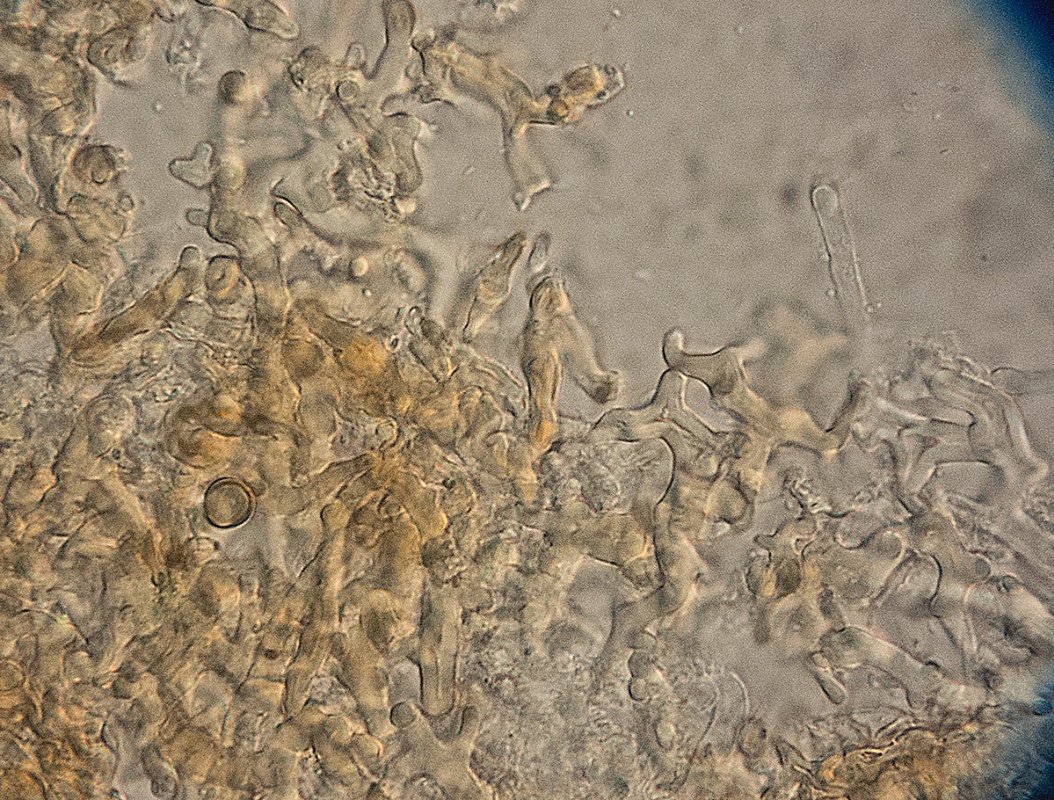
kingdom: Fungi
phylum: Basidiomycota
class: Agaricomycetes
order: Agaricales
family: Psathyrellaceae
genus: Coprinopsis
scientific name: Coprinopsis friesii
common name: græs-blækhat
